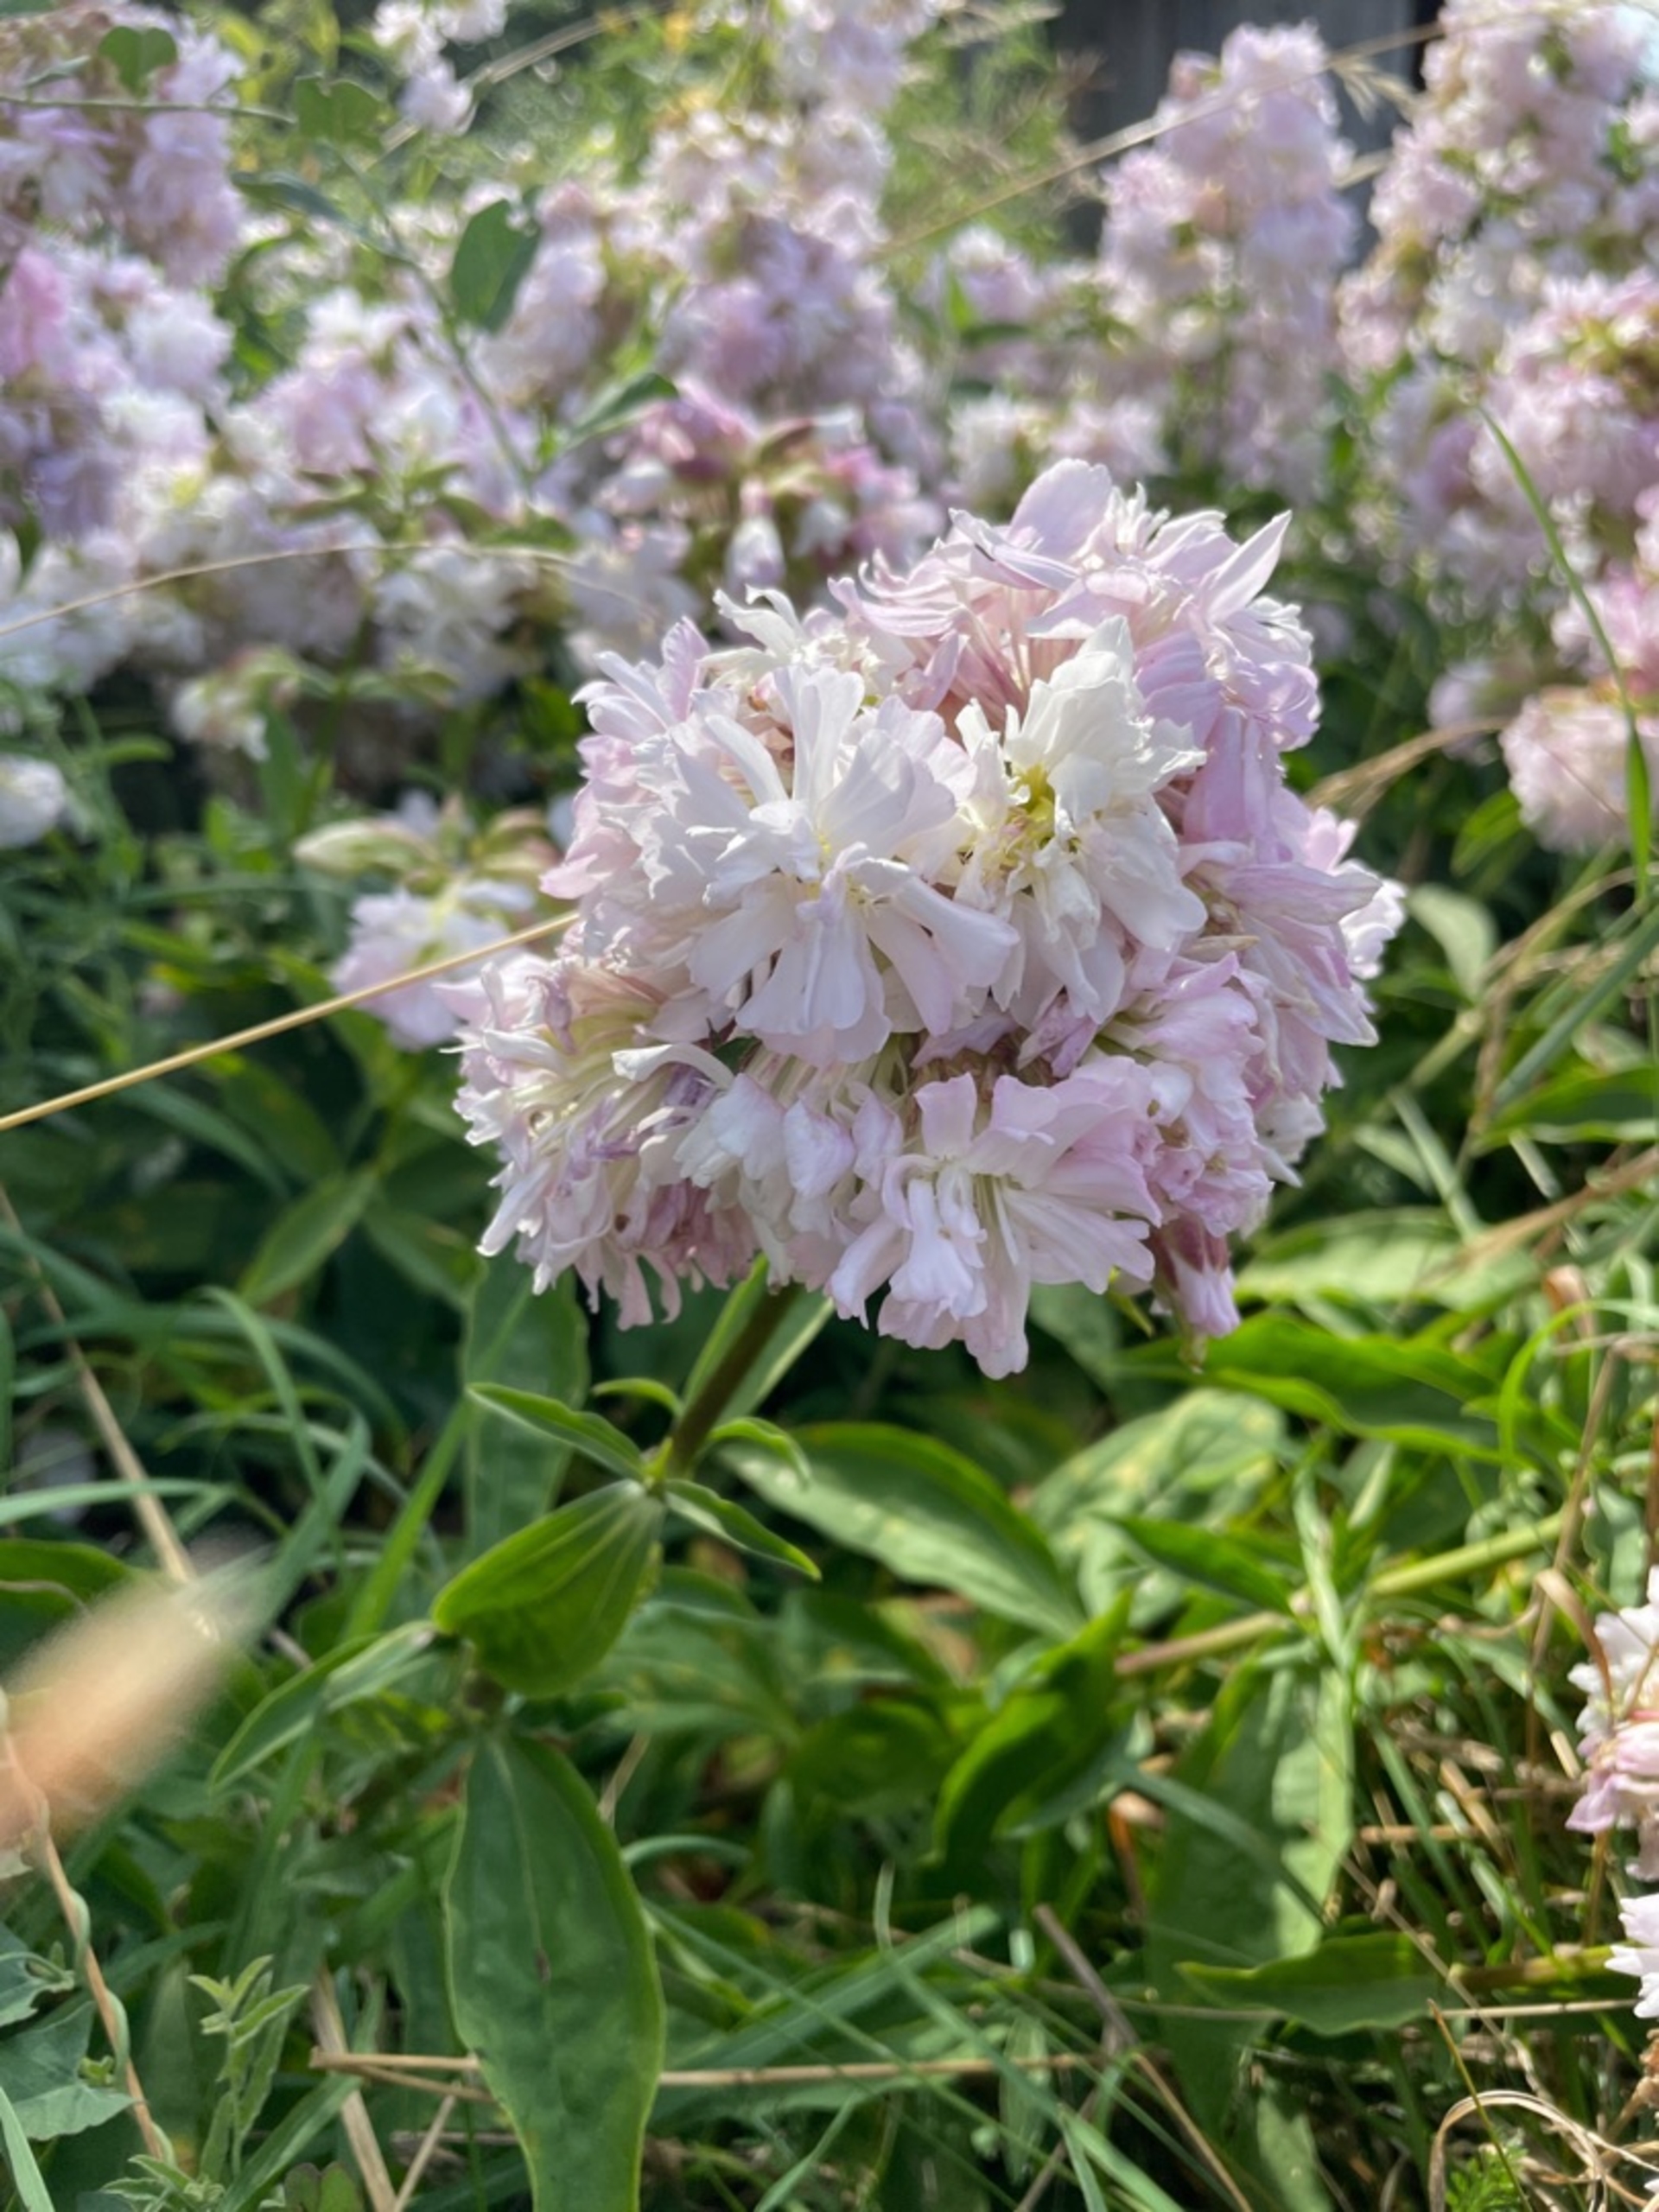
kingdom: Plantae
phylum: Tracheophyta
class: Magnoliopsida
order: Caryophyllales
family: Caryophyllaceae
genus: Saponaria
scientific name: Saponaria officinalis
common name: Sæbeurt
